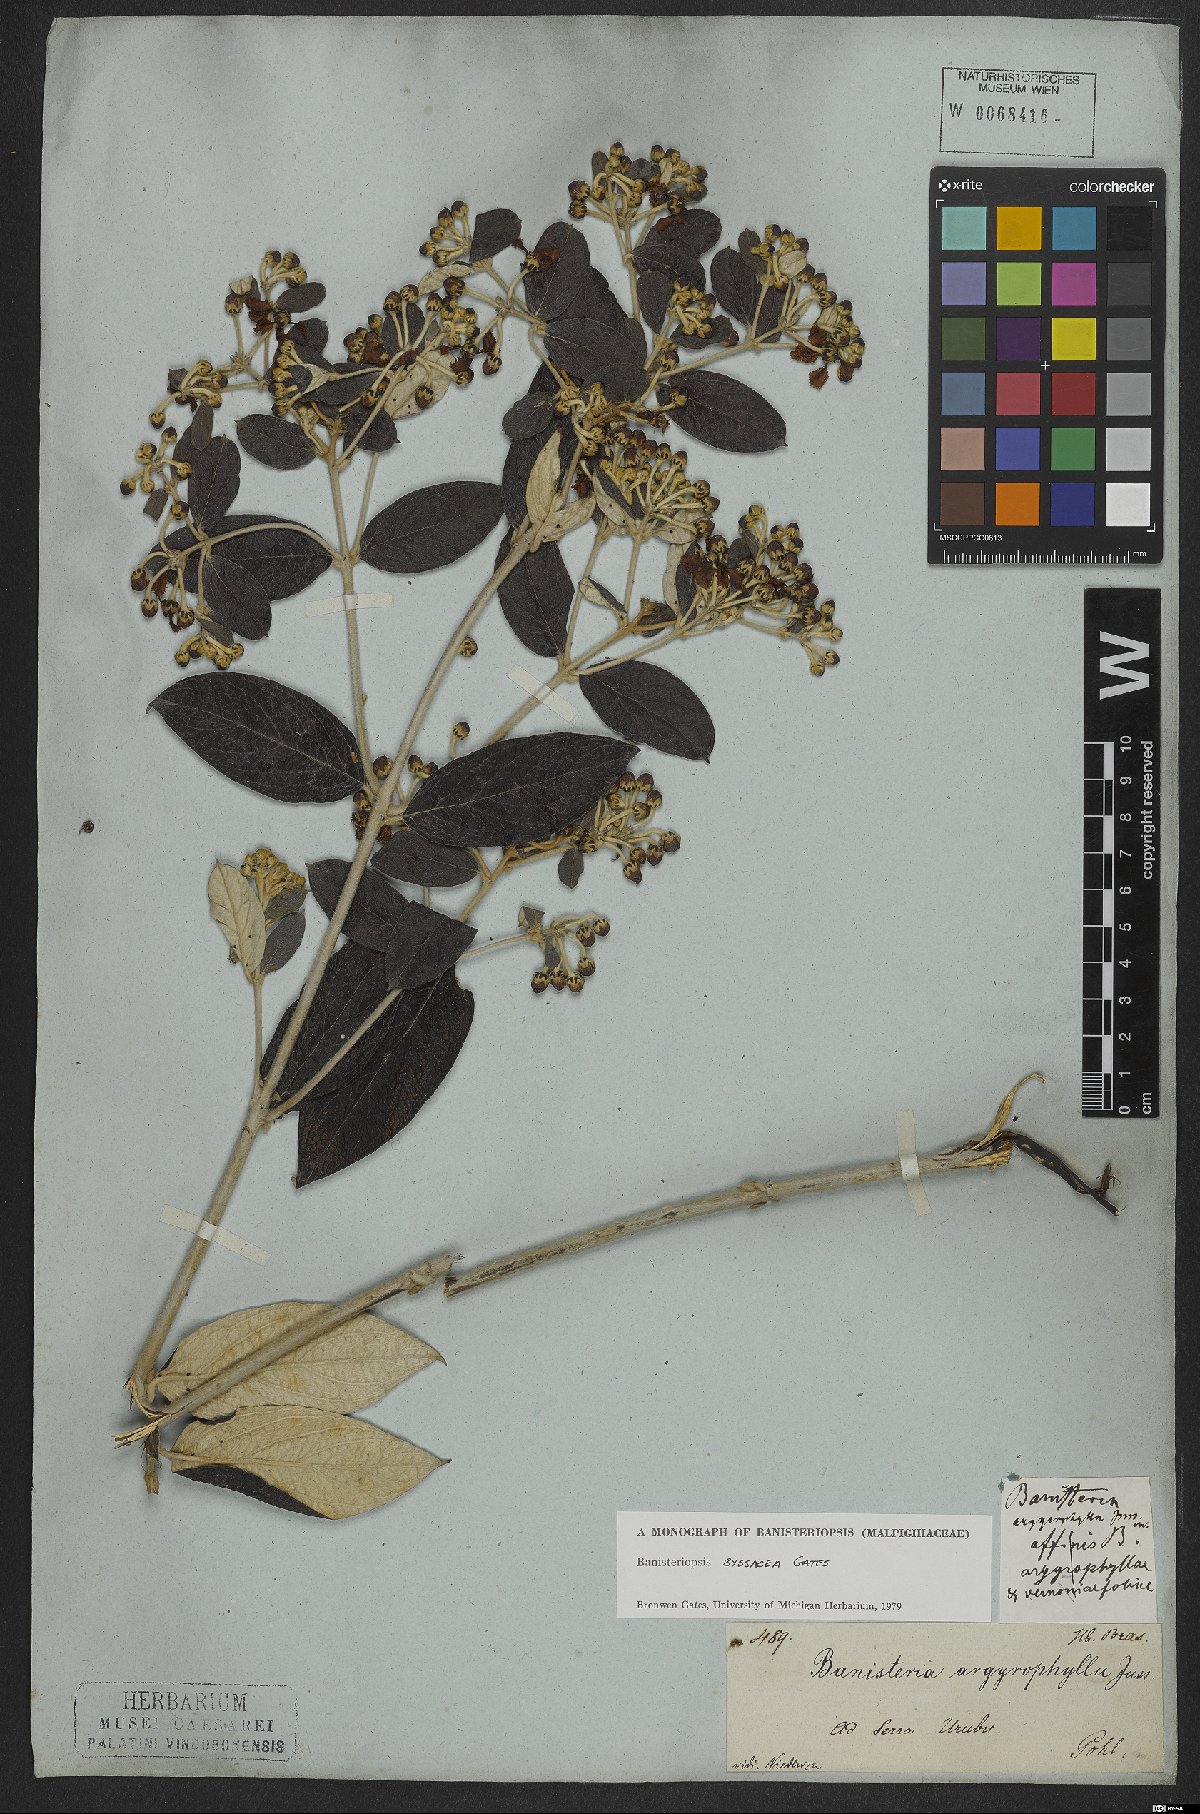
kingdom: Plantae
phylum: Tracheophyta
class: Magnoliopsida
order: Malpighiales
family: Malpighiaceae
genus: Banisteriopsis
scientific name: Banisteriopsis byssacea
